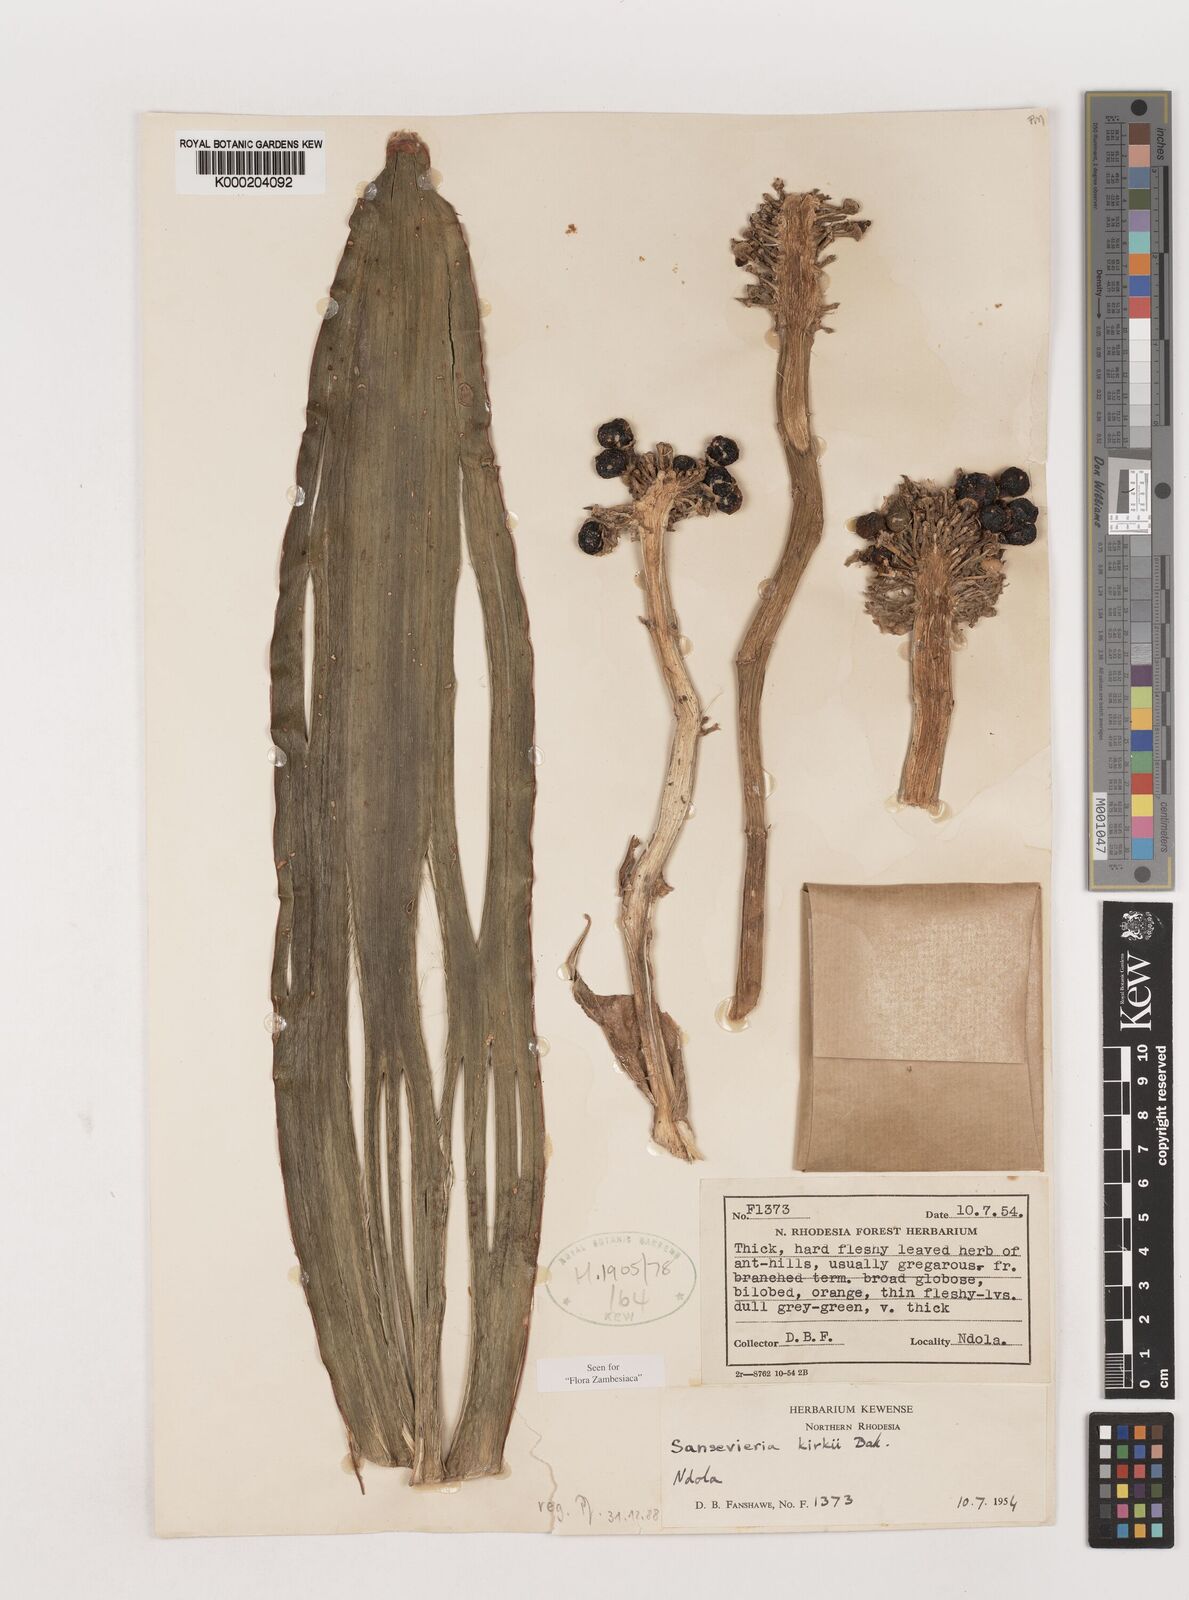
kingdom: Plantae
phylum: Tracheophyta
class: Liliopsida
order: Asparagales
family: Asparagaceae
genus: Dracaena
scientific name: Dracaena pethera
